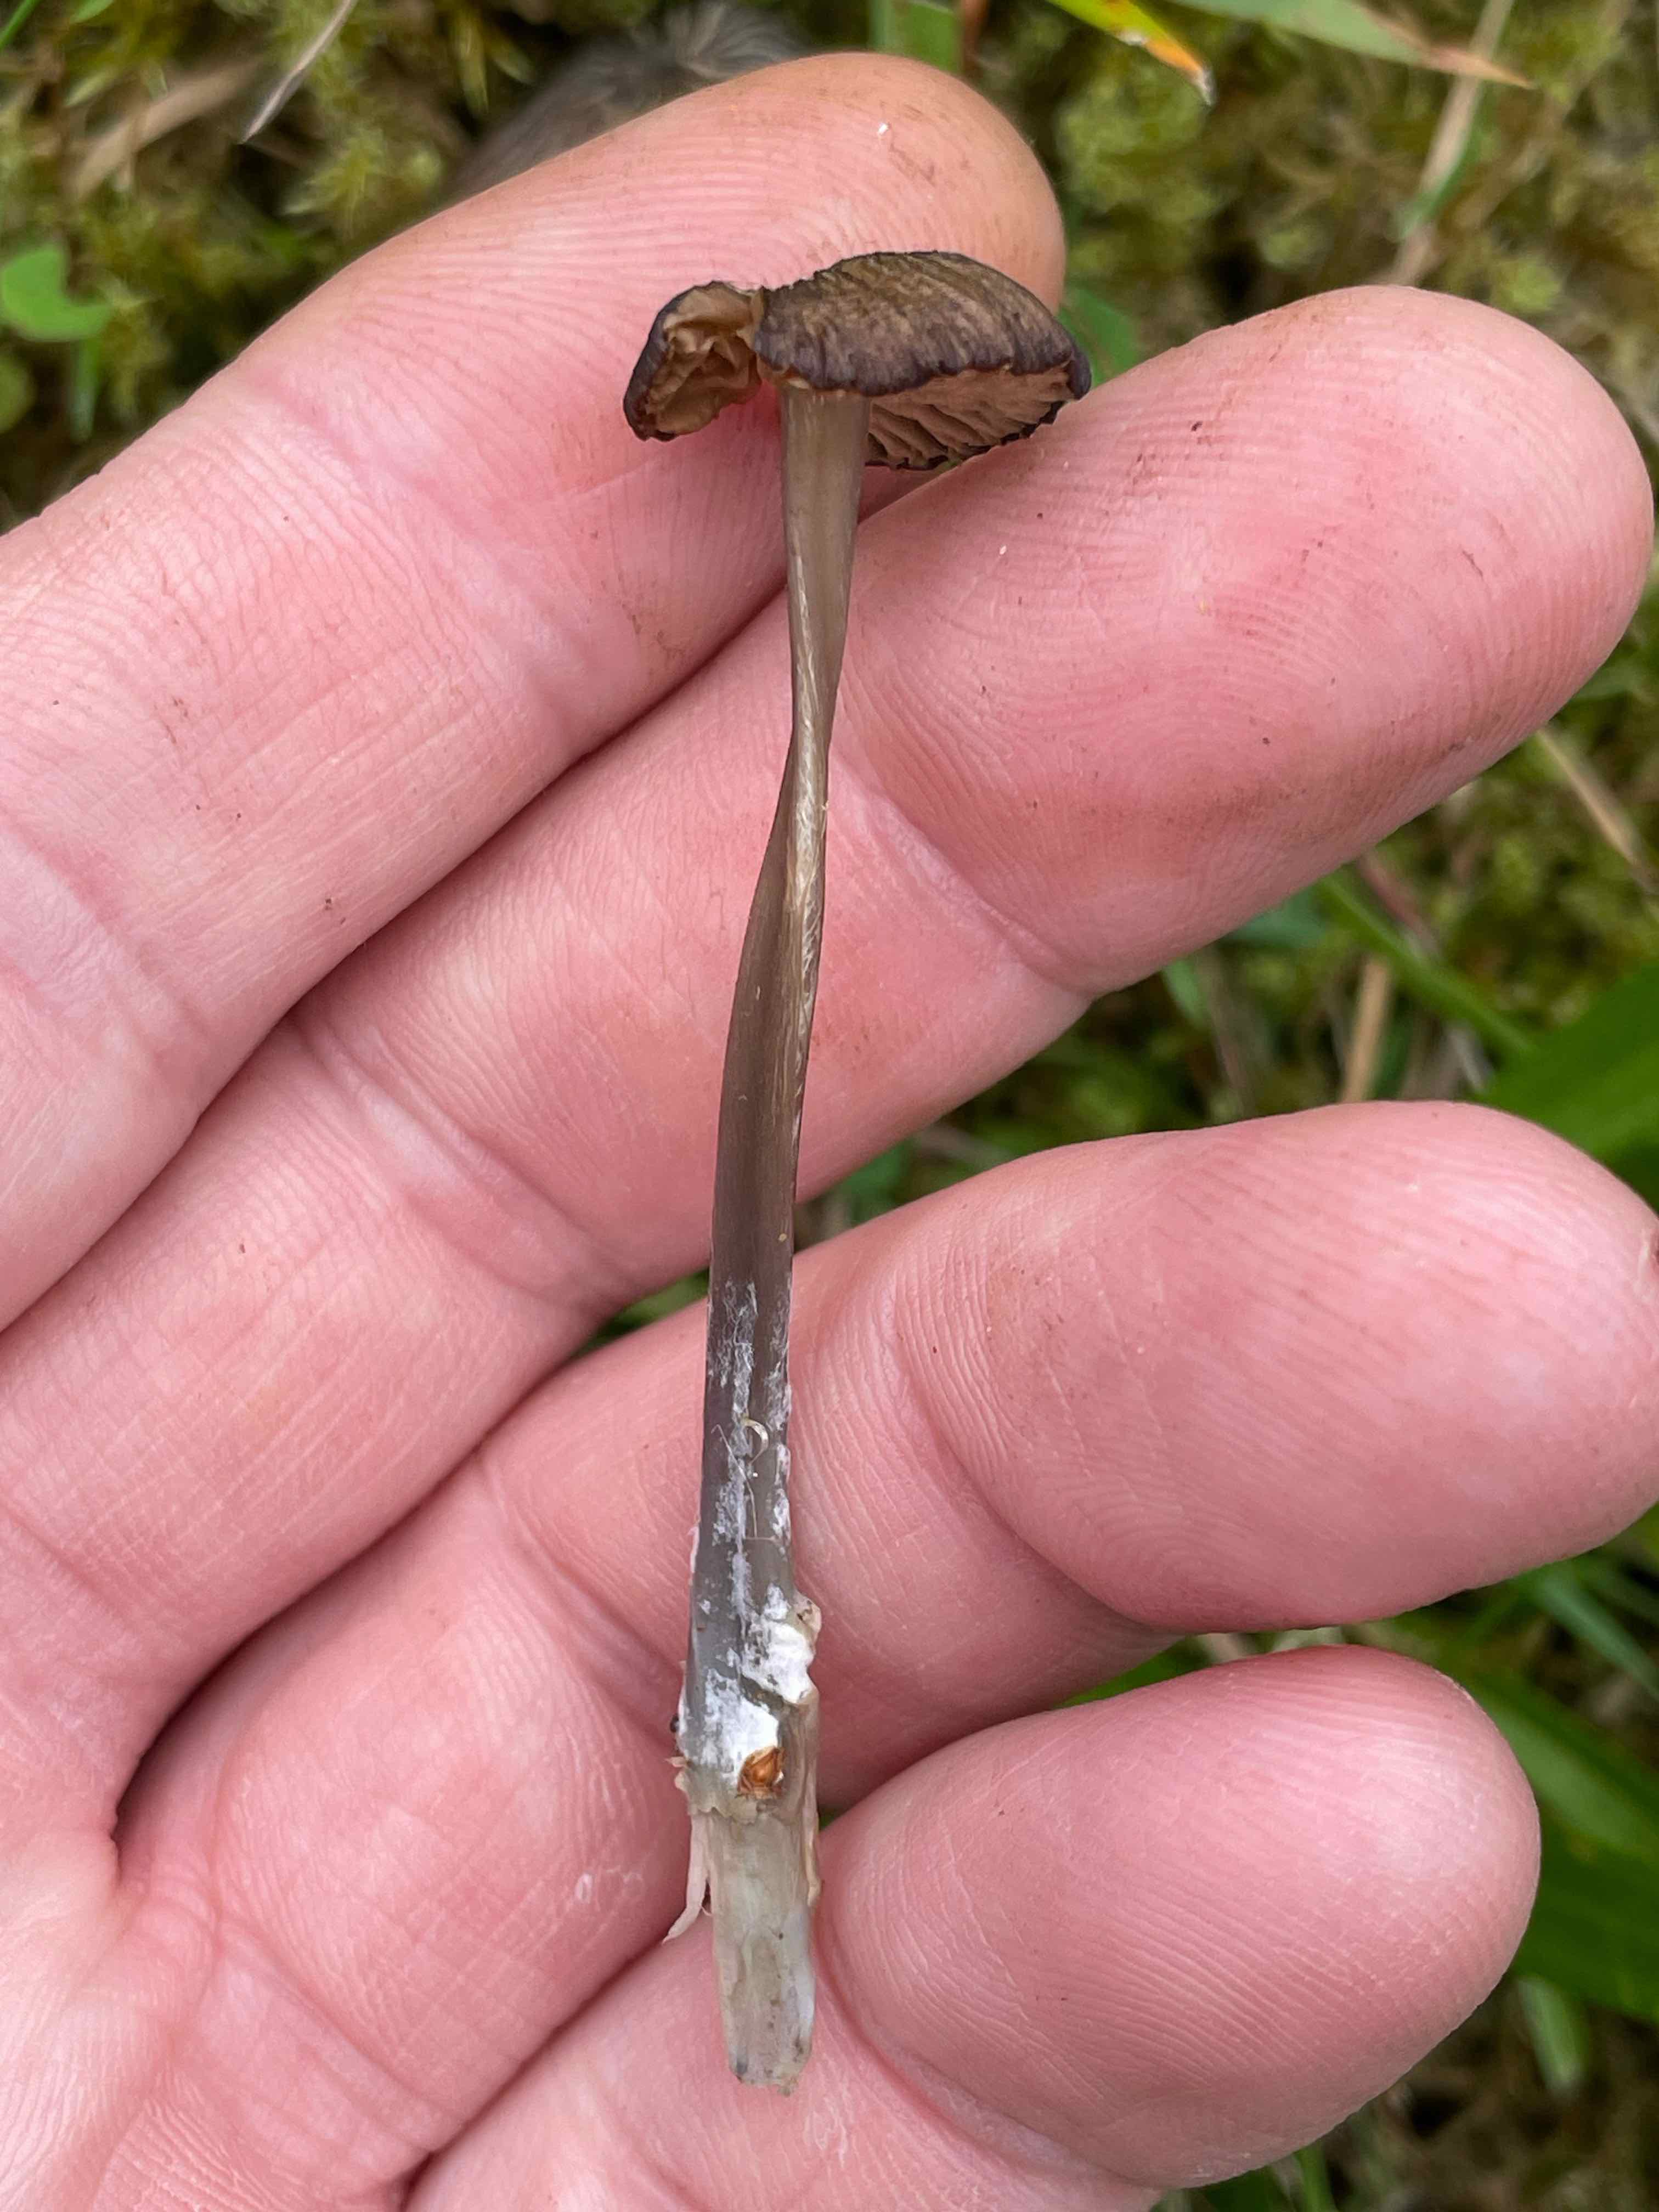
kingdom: Fungi
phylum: Basidiomycota
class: Agaricomycetes
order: Agaricales
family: Entolomataceae
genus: Entoloma
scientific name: Entoloma
